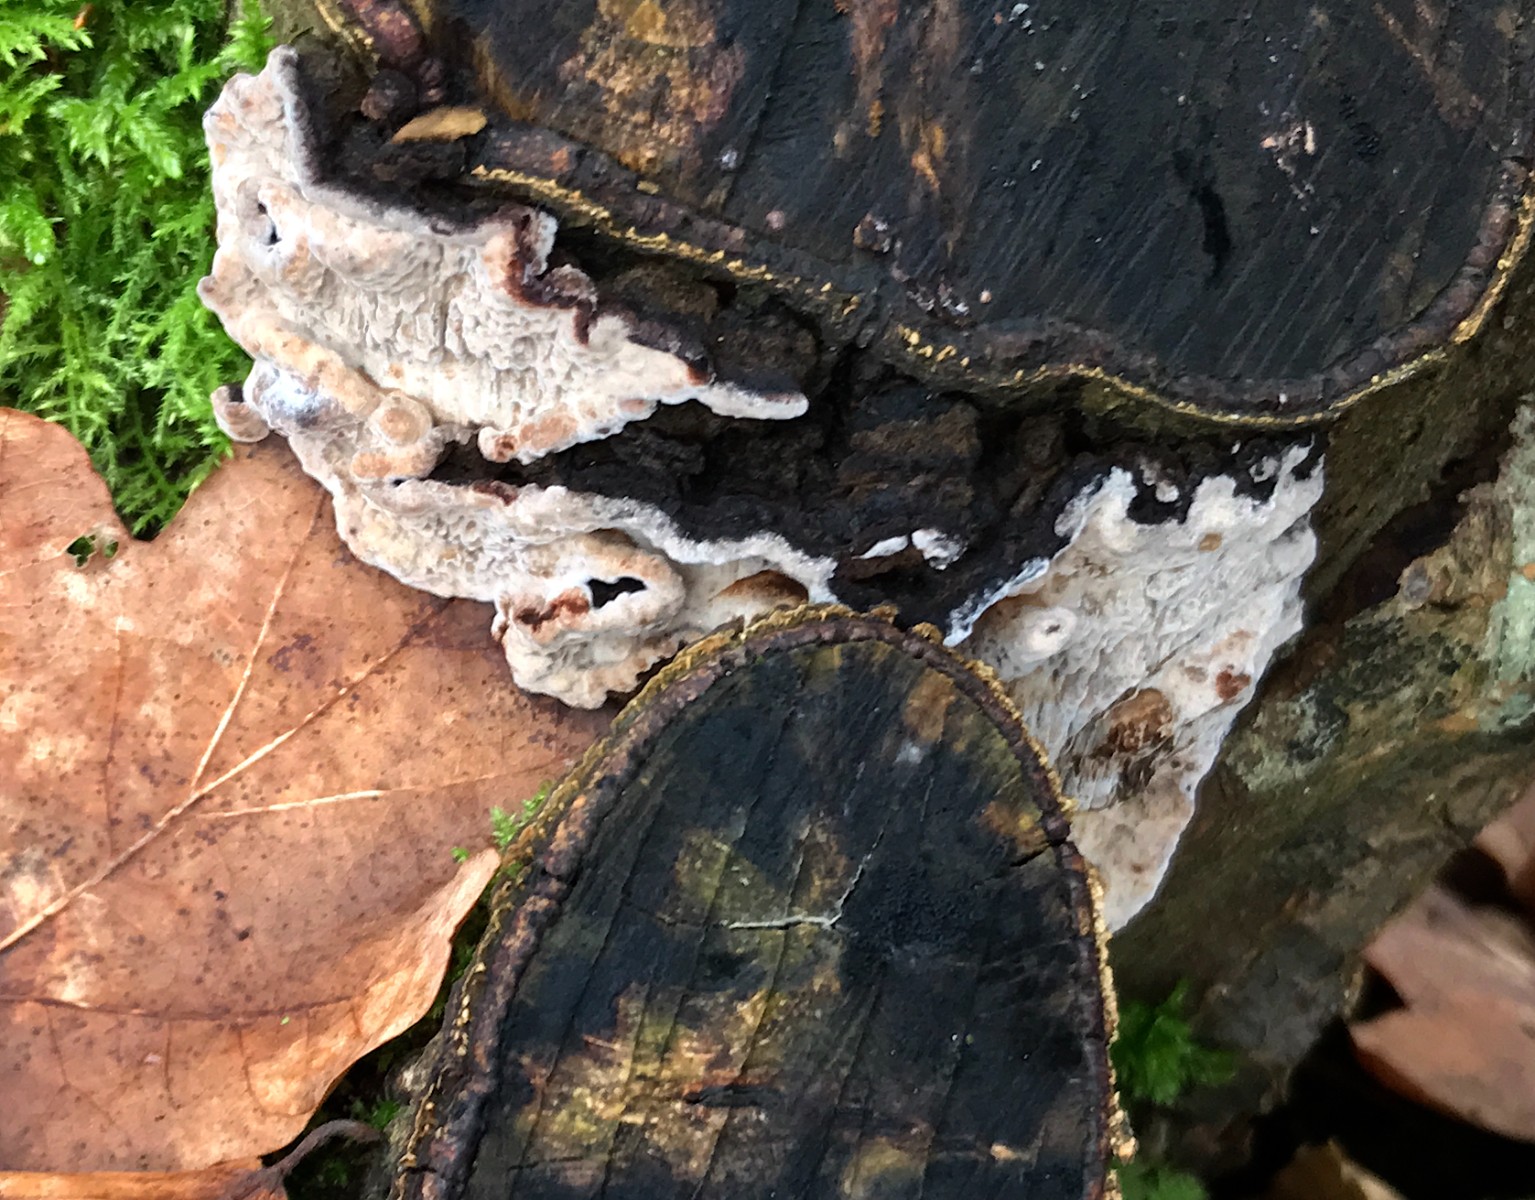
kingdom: Fungi
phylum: Basidiomycota
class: Agaricomycetes
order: Polyporales
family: Polyporaceae
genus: Podofomes
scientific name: Podofomes mollis
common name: blød begporesvamp
